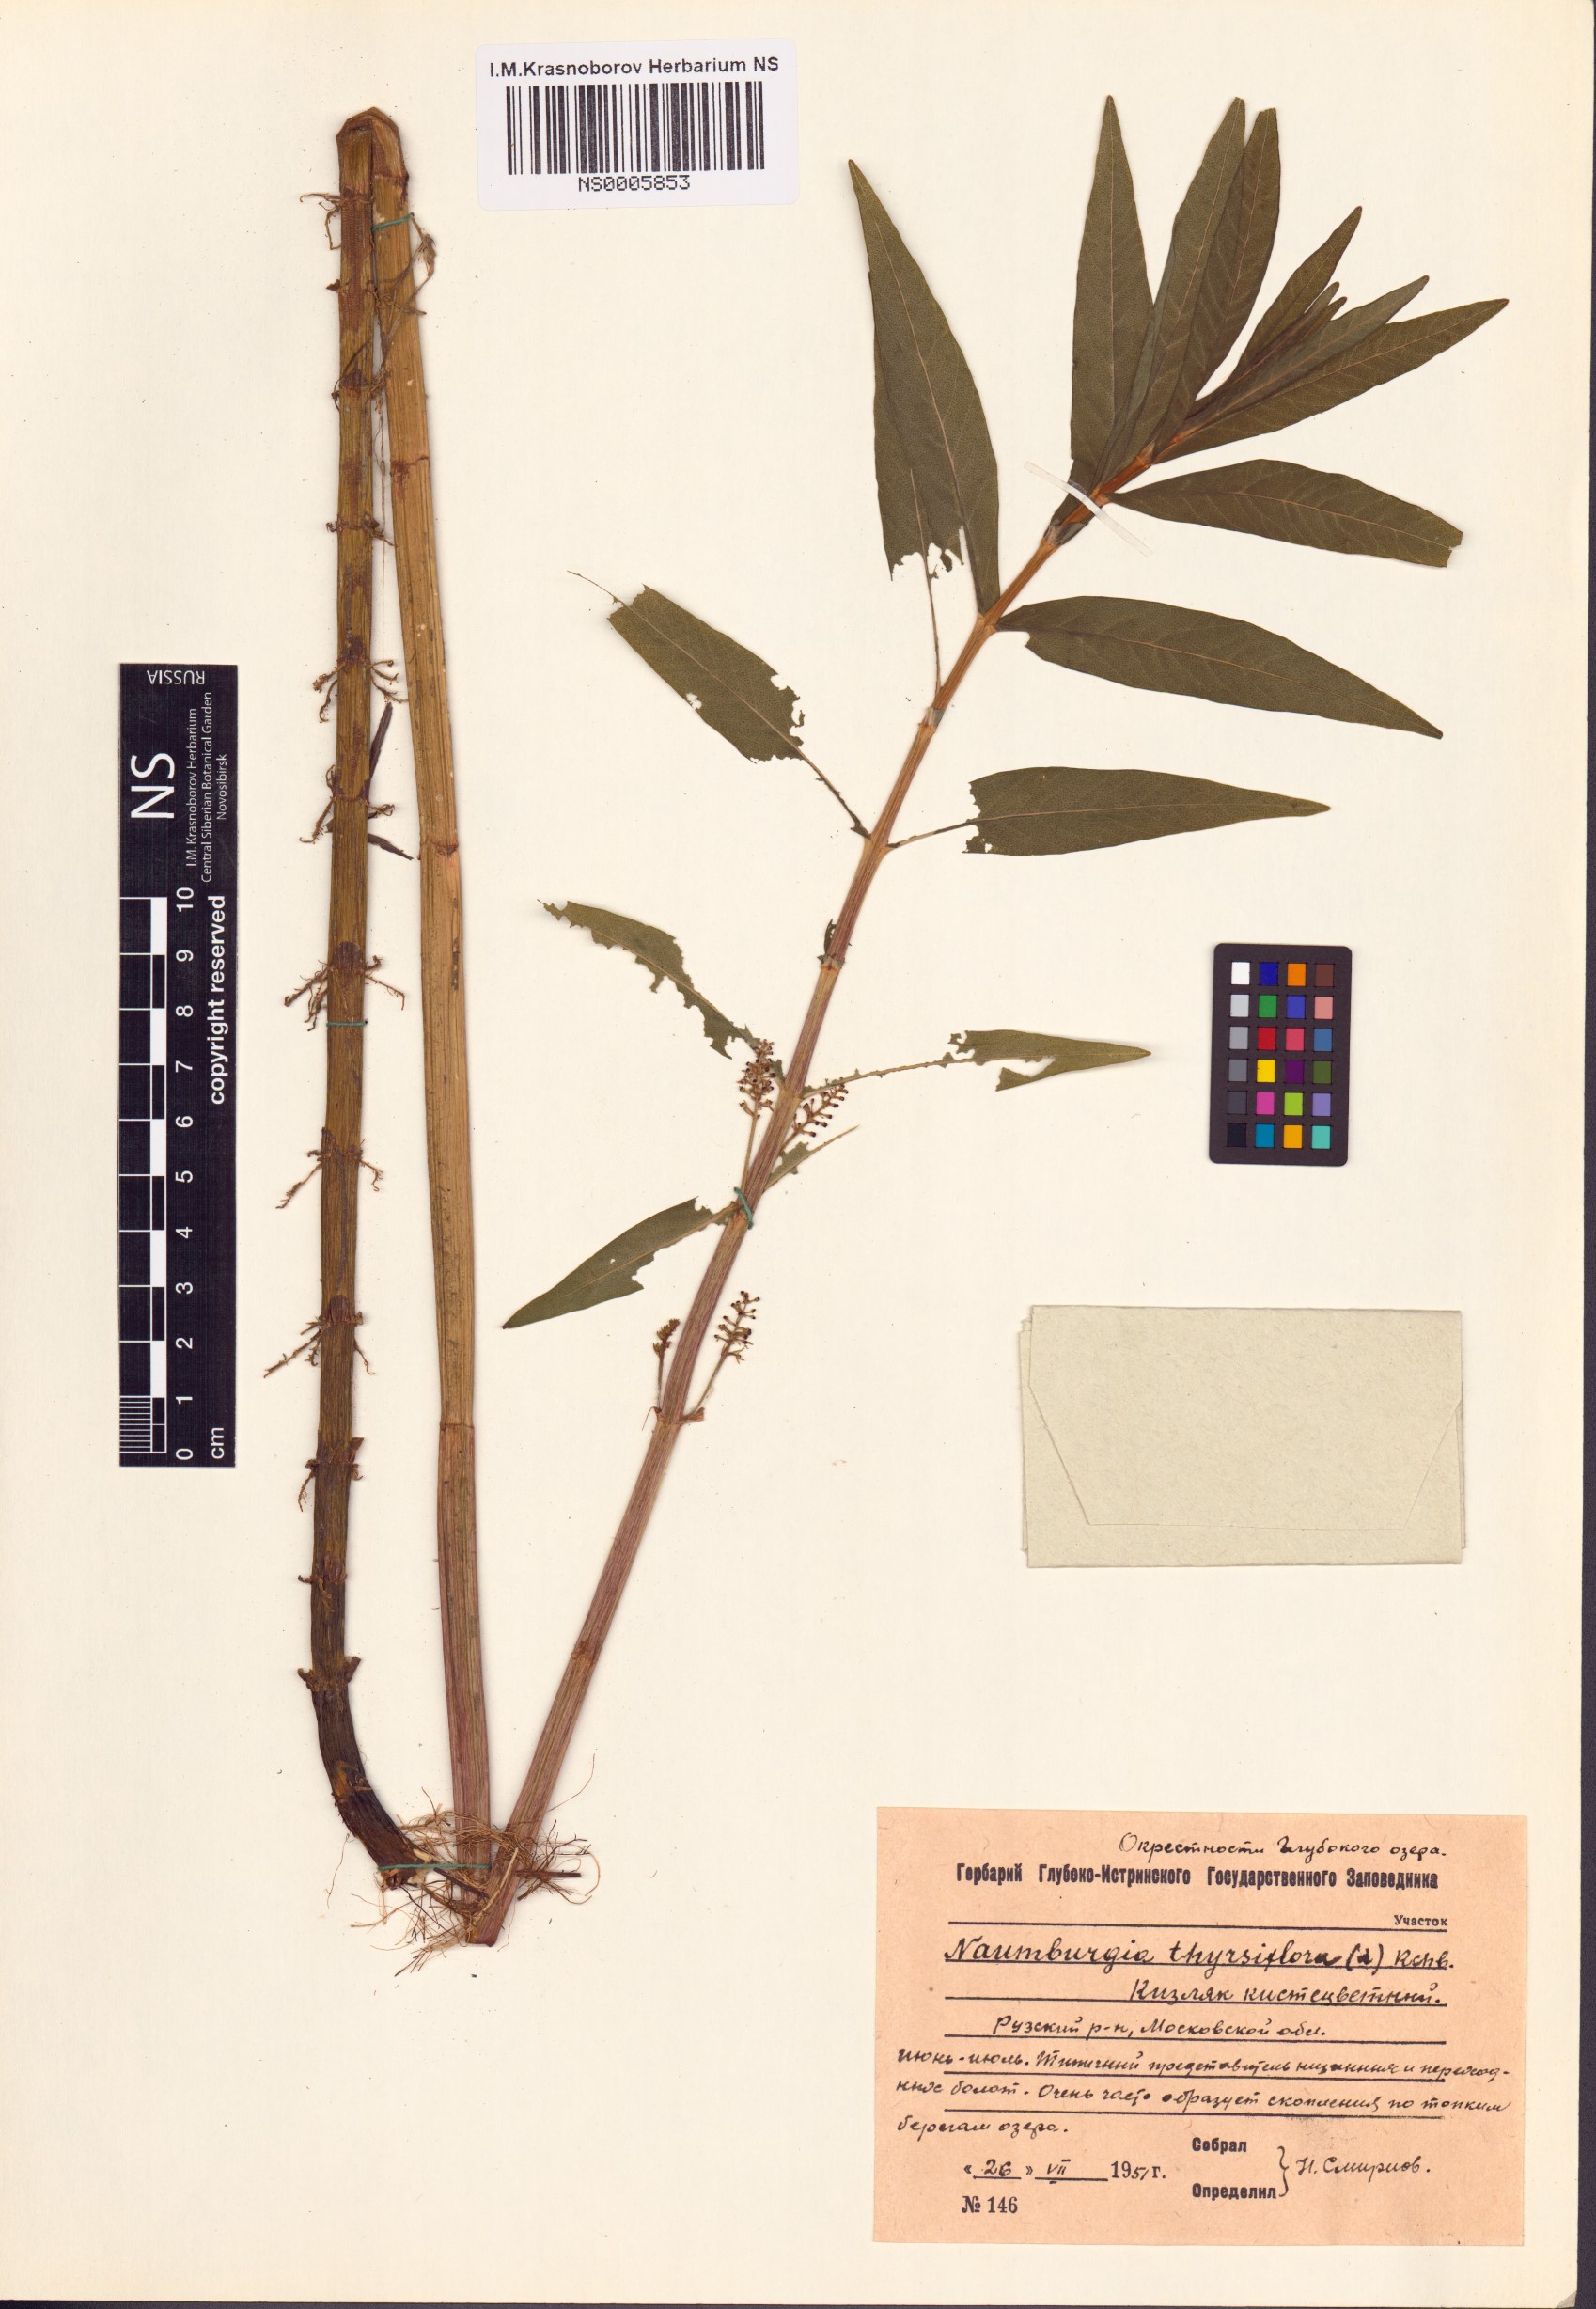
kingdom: Plantae
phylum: Tracheophyta
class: Magnoliopsida
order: Ericales
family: Primulaceae
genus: Lysimachia
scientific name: Lysimachia thyrsiflora
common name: Tufted loosestrife
